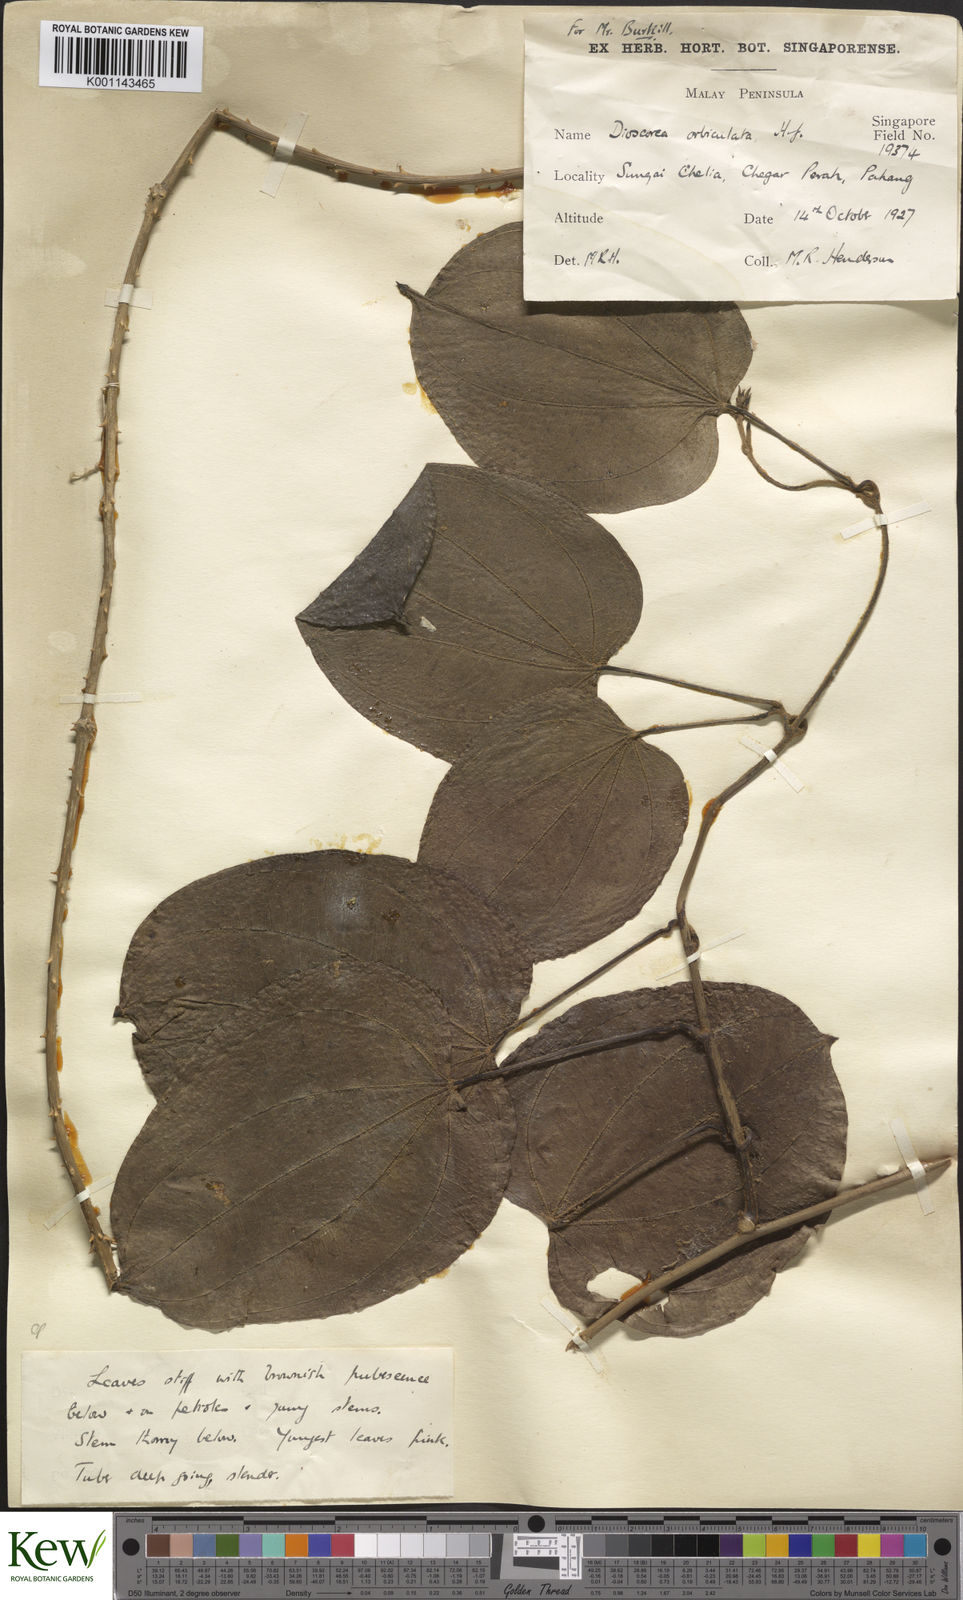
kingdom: Plantae
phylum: Tracheophyta
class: Liliopsida
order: Dioscoreales
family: Dioscoreaceae
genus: Dioscorea
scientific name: Dioscorea orbiculata
